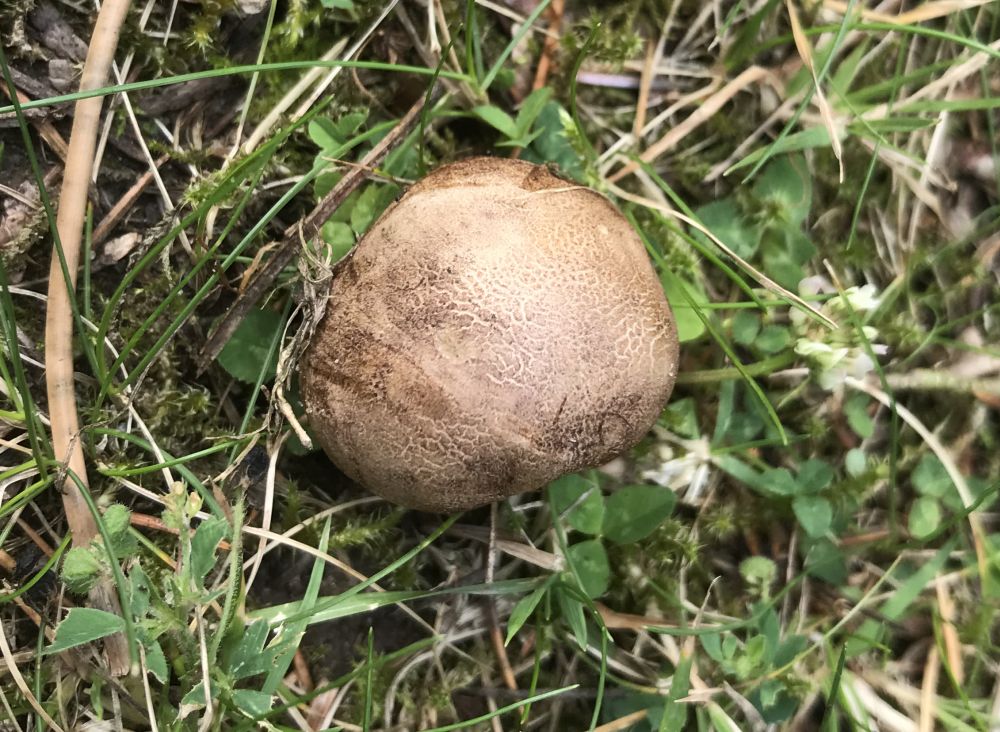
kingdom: Fungi
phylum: Basidiomycota
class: Agaricomycetes
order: Boletales
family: Sclerodermataceae
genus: Scleroderma
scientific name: Scleroderma bovista
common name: bovist-bruskbold
